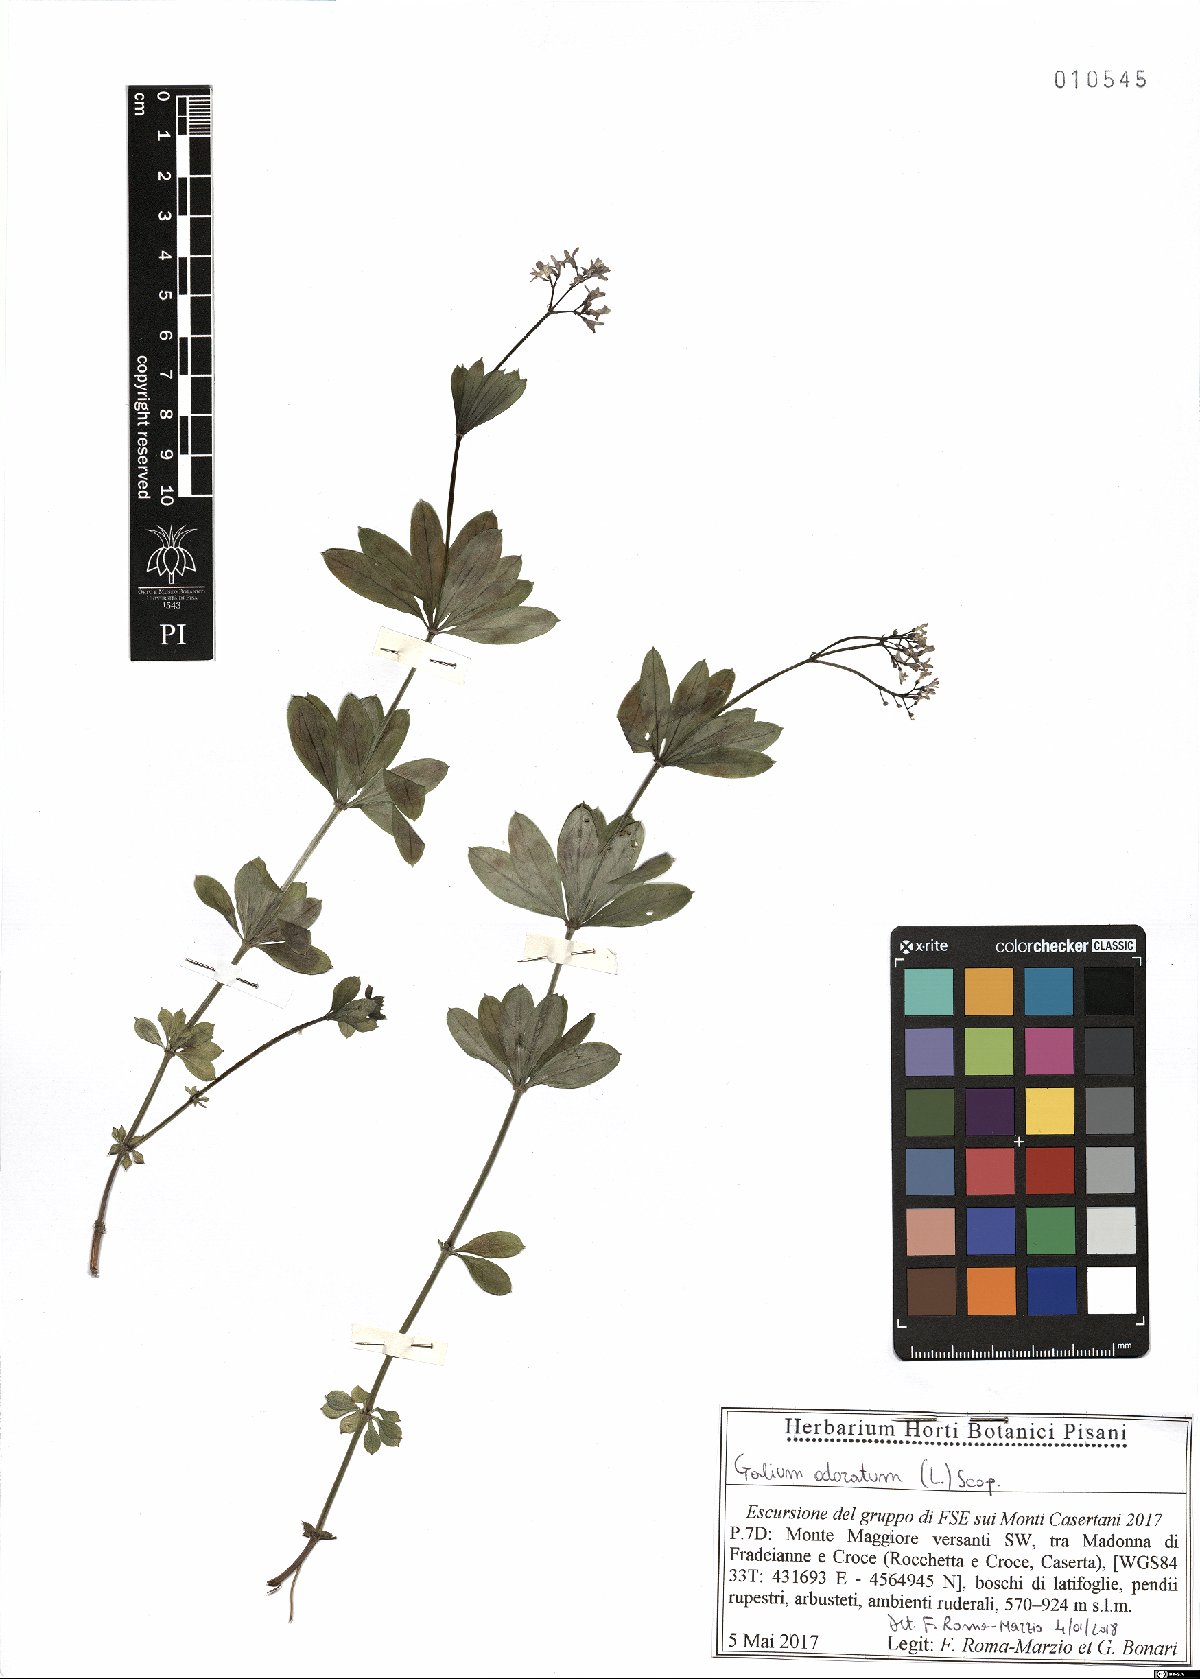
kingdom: Plantae
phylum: Tracheophyta
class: Magnoliopsida
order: Gentianales
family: Rubiaceae
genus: Galium
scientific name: Galium odoratum
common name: Sweet woodruff
